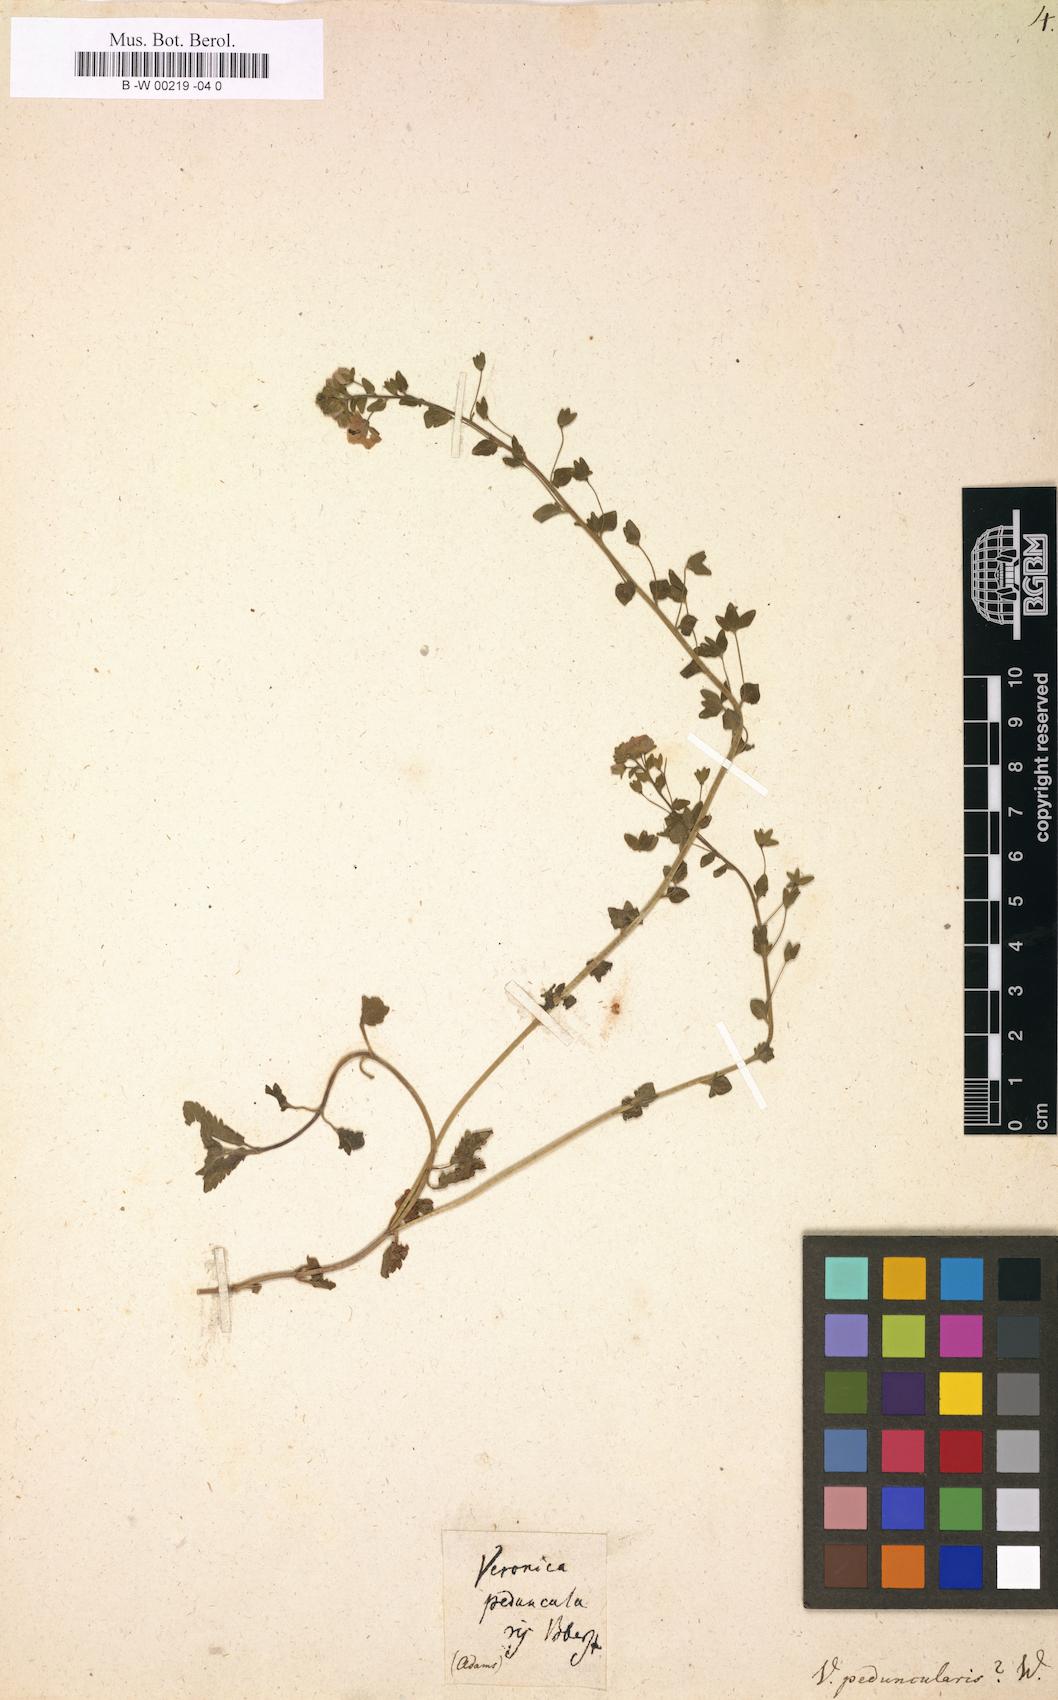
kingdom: Plantae
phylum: Tracheophyta
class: Magnoliopsida
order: Lamiales
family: Plantaginaceae
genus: Veronica
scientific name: Veronica peduncularis
